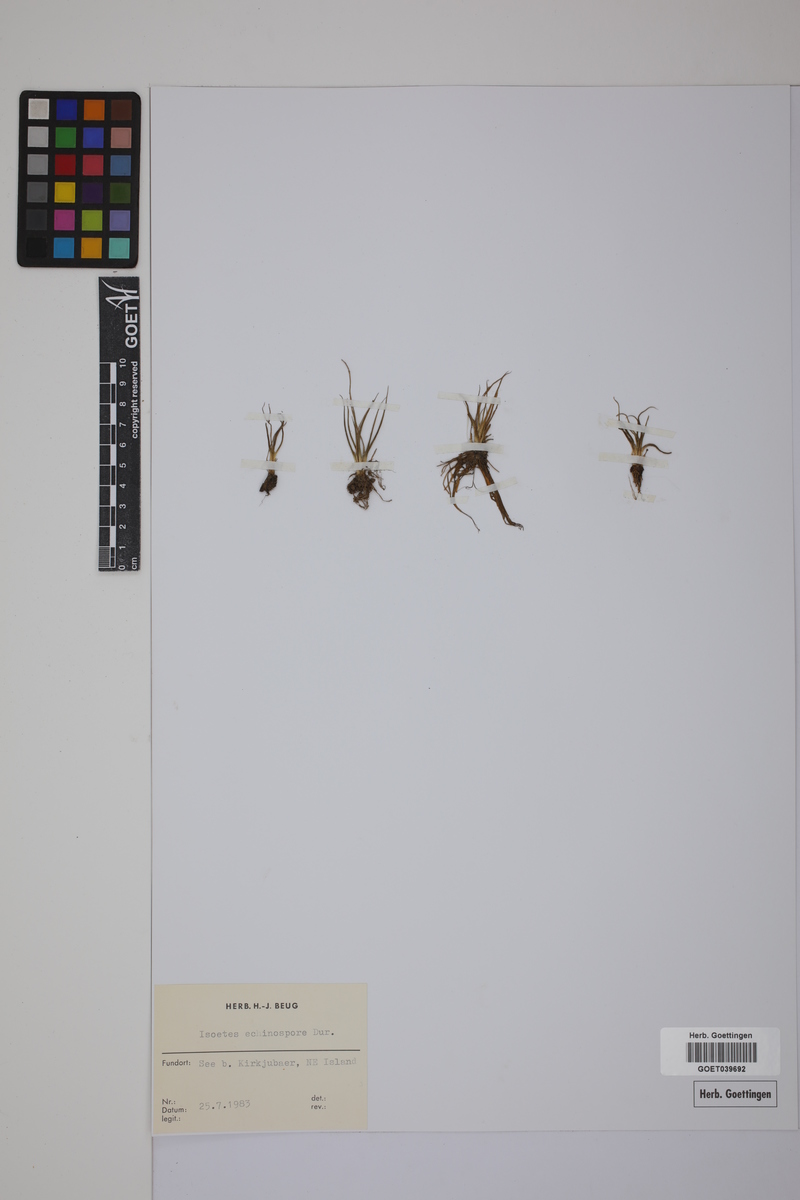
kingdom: Plantae
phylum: Tracheophyta
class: Lycopodiopsida
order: Isoetales
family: Isoetaceae
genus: Isoetes
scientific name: Isoetes echinospora
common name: Spring quillwort
